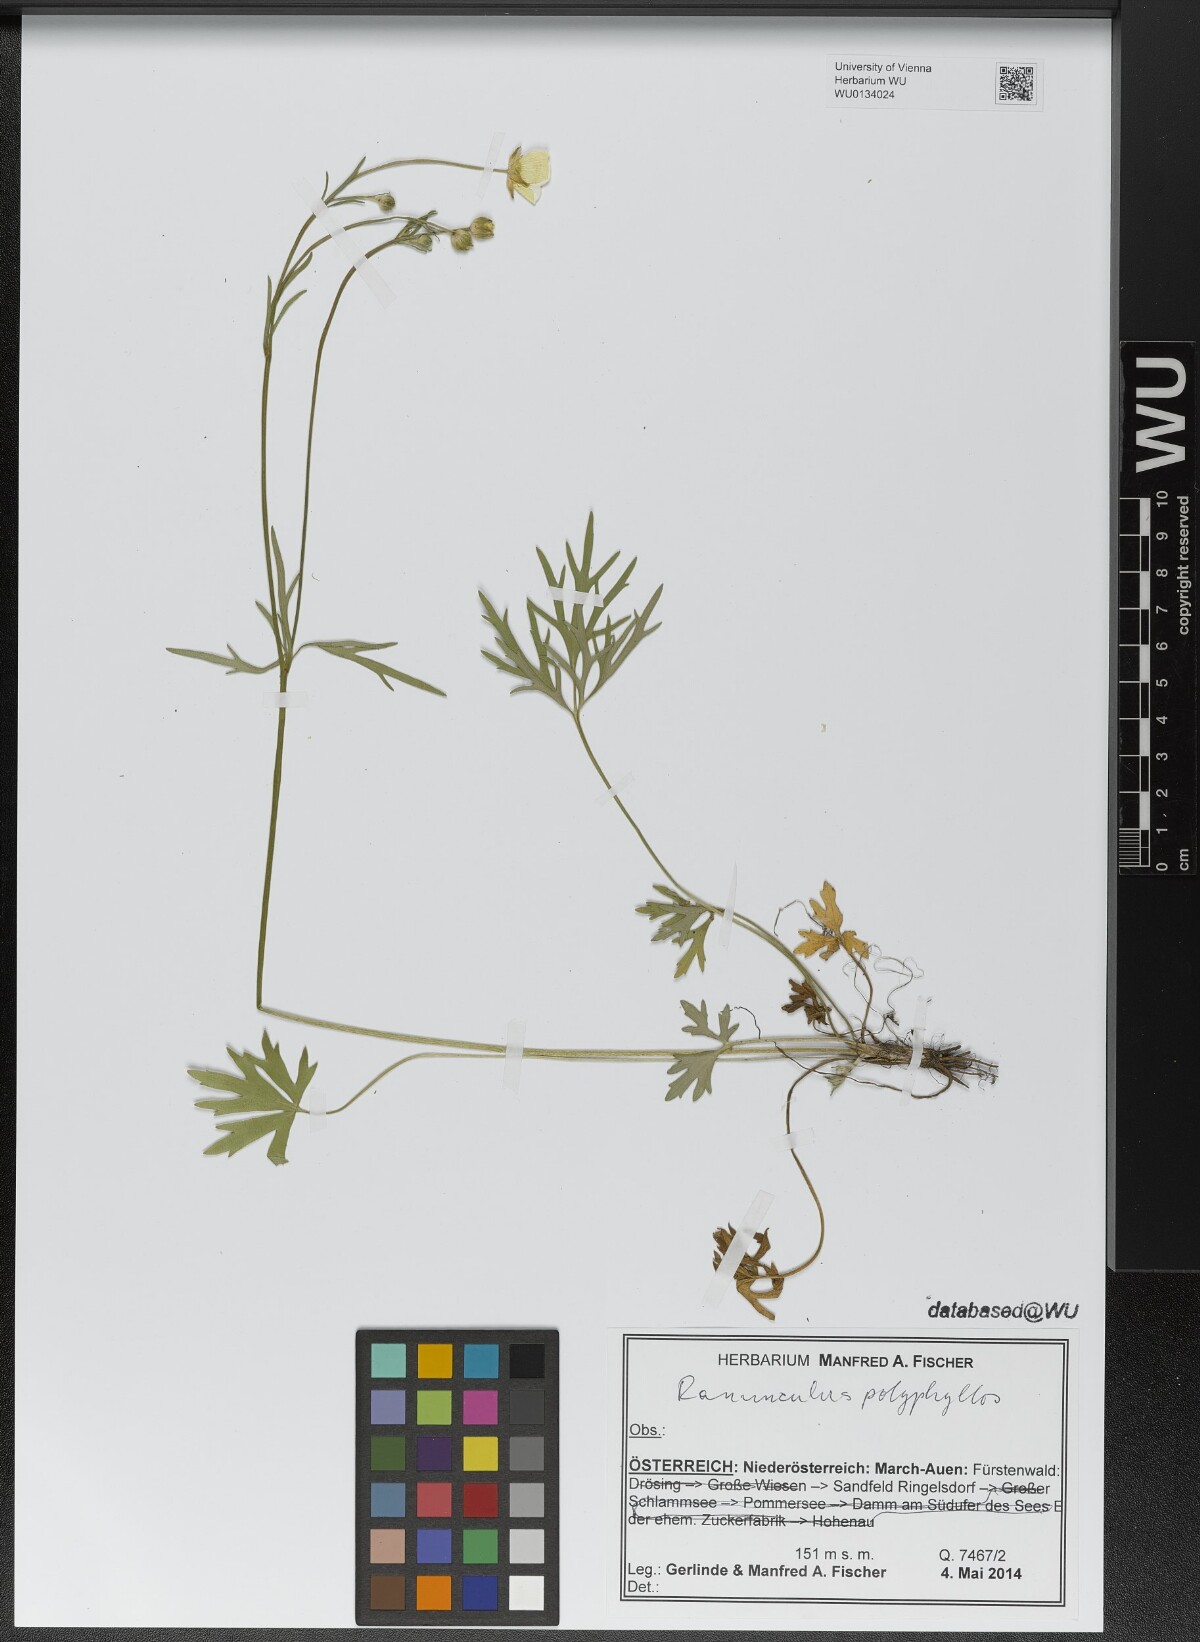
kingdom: Plantae
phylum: Tracheophyta
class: Magnoliopsida
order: Ranunculales
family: Ranunculaceae
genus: Ranunculus
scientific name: Ranunculus polyphyllus
